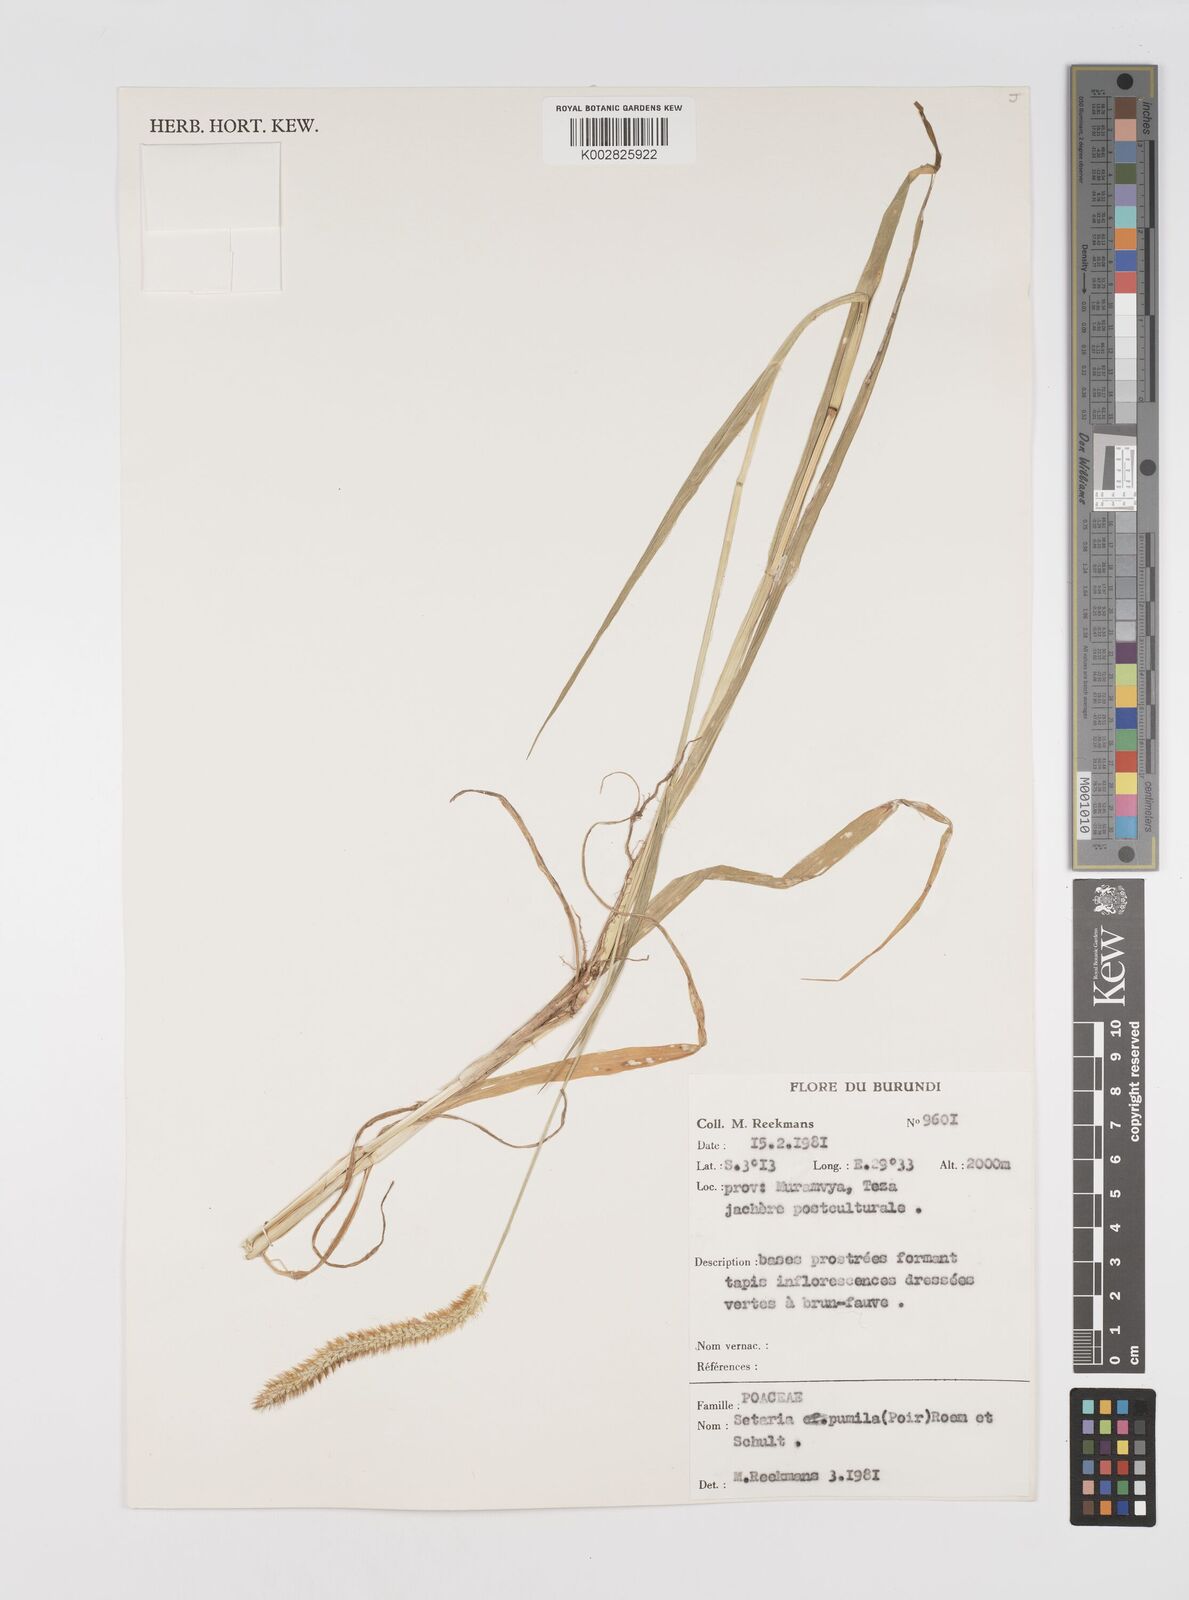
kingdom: Plantae
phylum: Tracheophyta
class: Liliopsida
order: Poales
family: Poaceae
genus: Setaria
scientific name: Setaria pumila
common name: Yellow bristle-grass
